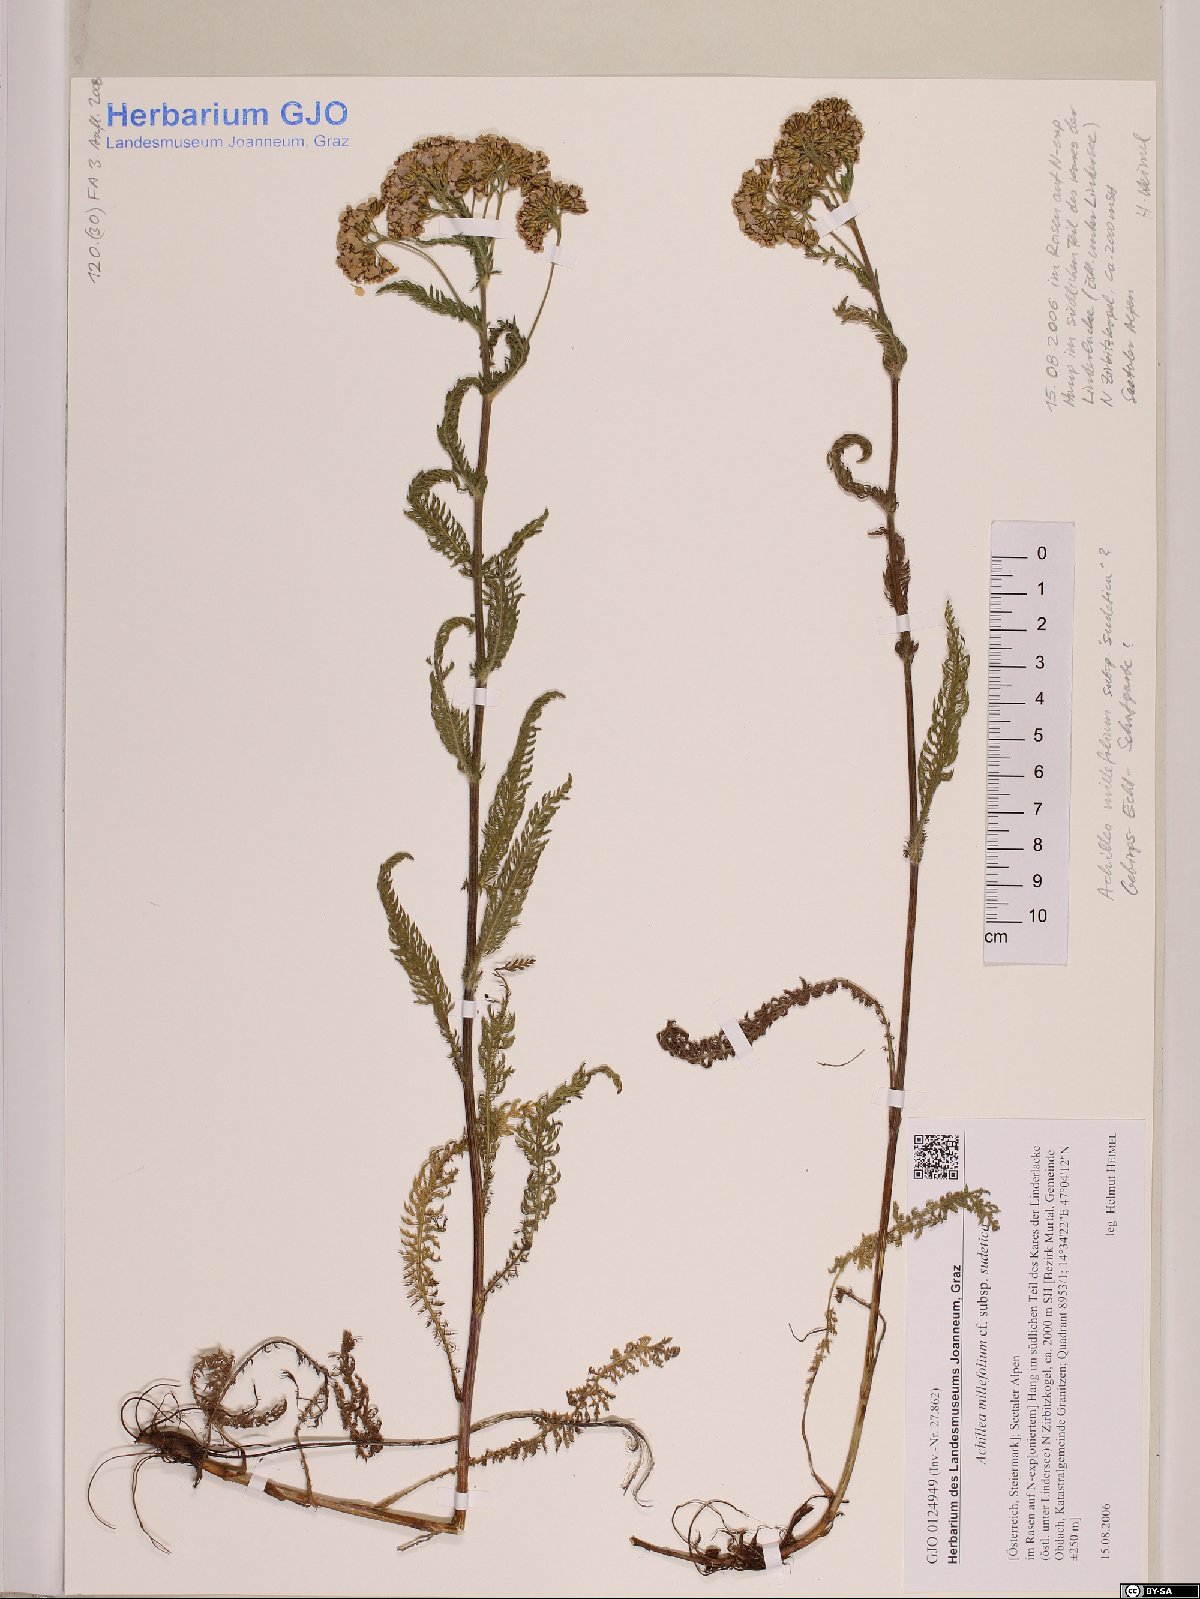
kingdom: Plantae
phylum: Tracheophyta
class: Magnoliopsida
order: Asterales
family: Asteraceae
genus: Achillea
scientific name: Achillea millefolium
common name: Yarrow
